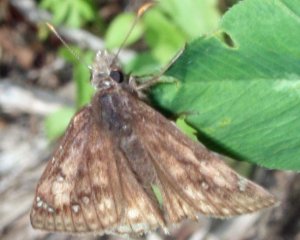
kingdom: Animalia
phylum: Arthropoda
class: Insecta
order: Lepidoptera
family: Hesperiidae
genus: Gesta
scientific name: Gesta
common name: Juvenal's Duskywing
